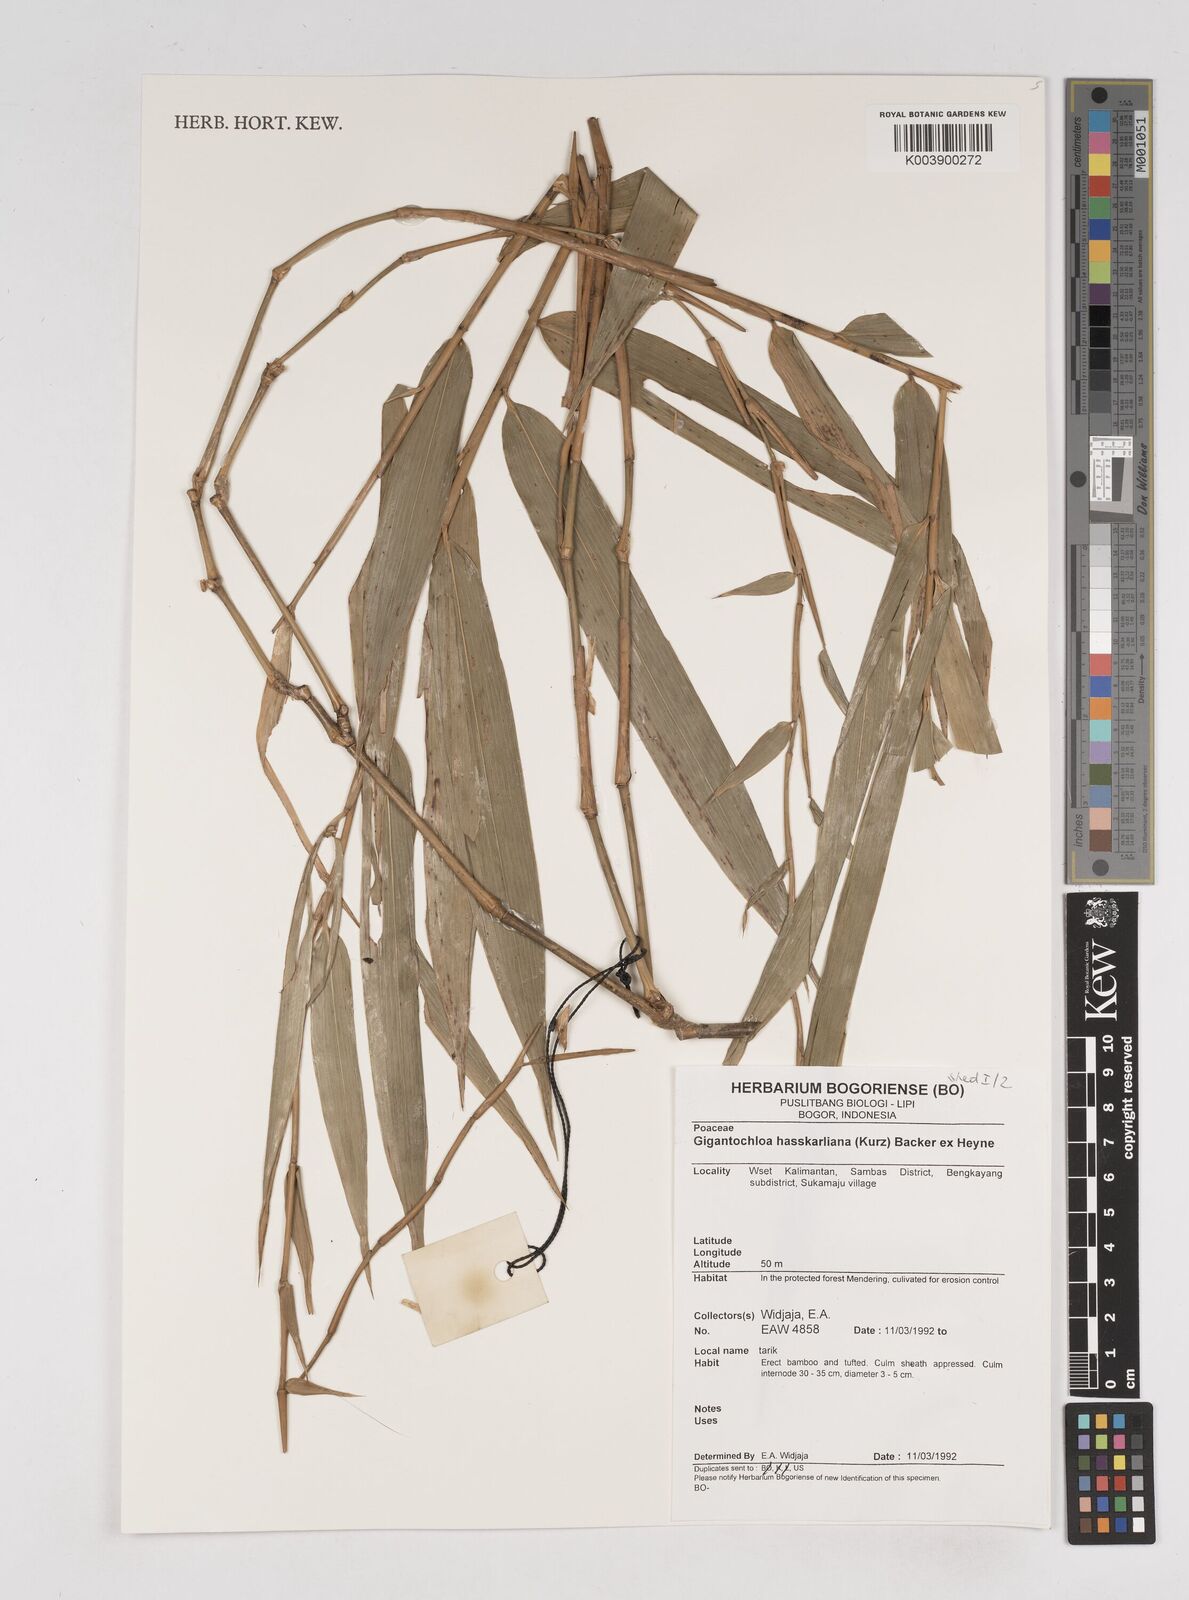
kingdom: Plantae
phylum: Tracheophyta
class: Liliopsida
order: Poales
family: Poaceae
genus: Gigantochloa
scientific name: Gigantochloa hasskarliana
